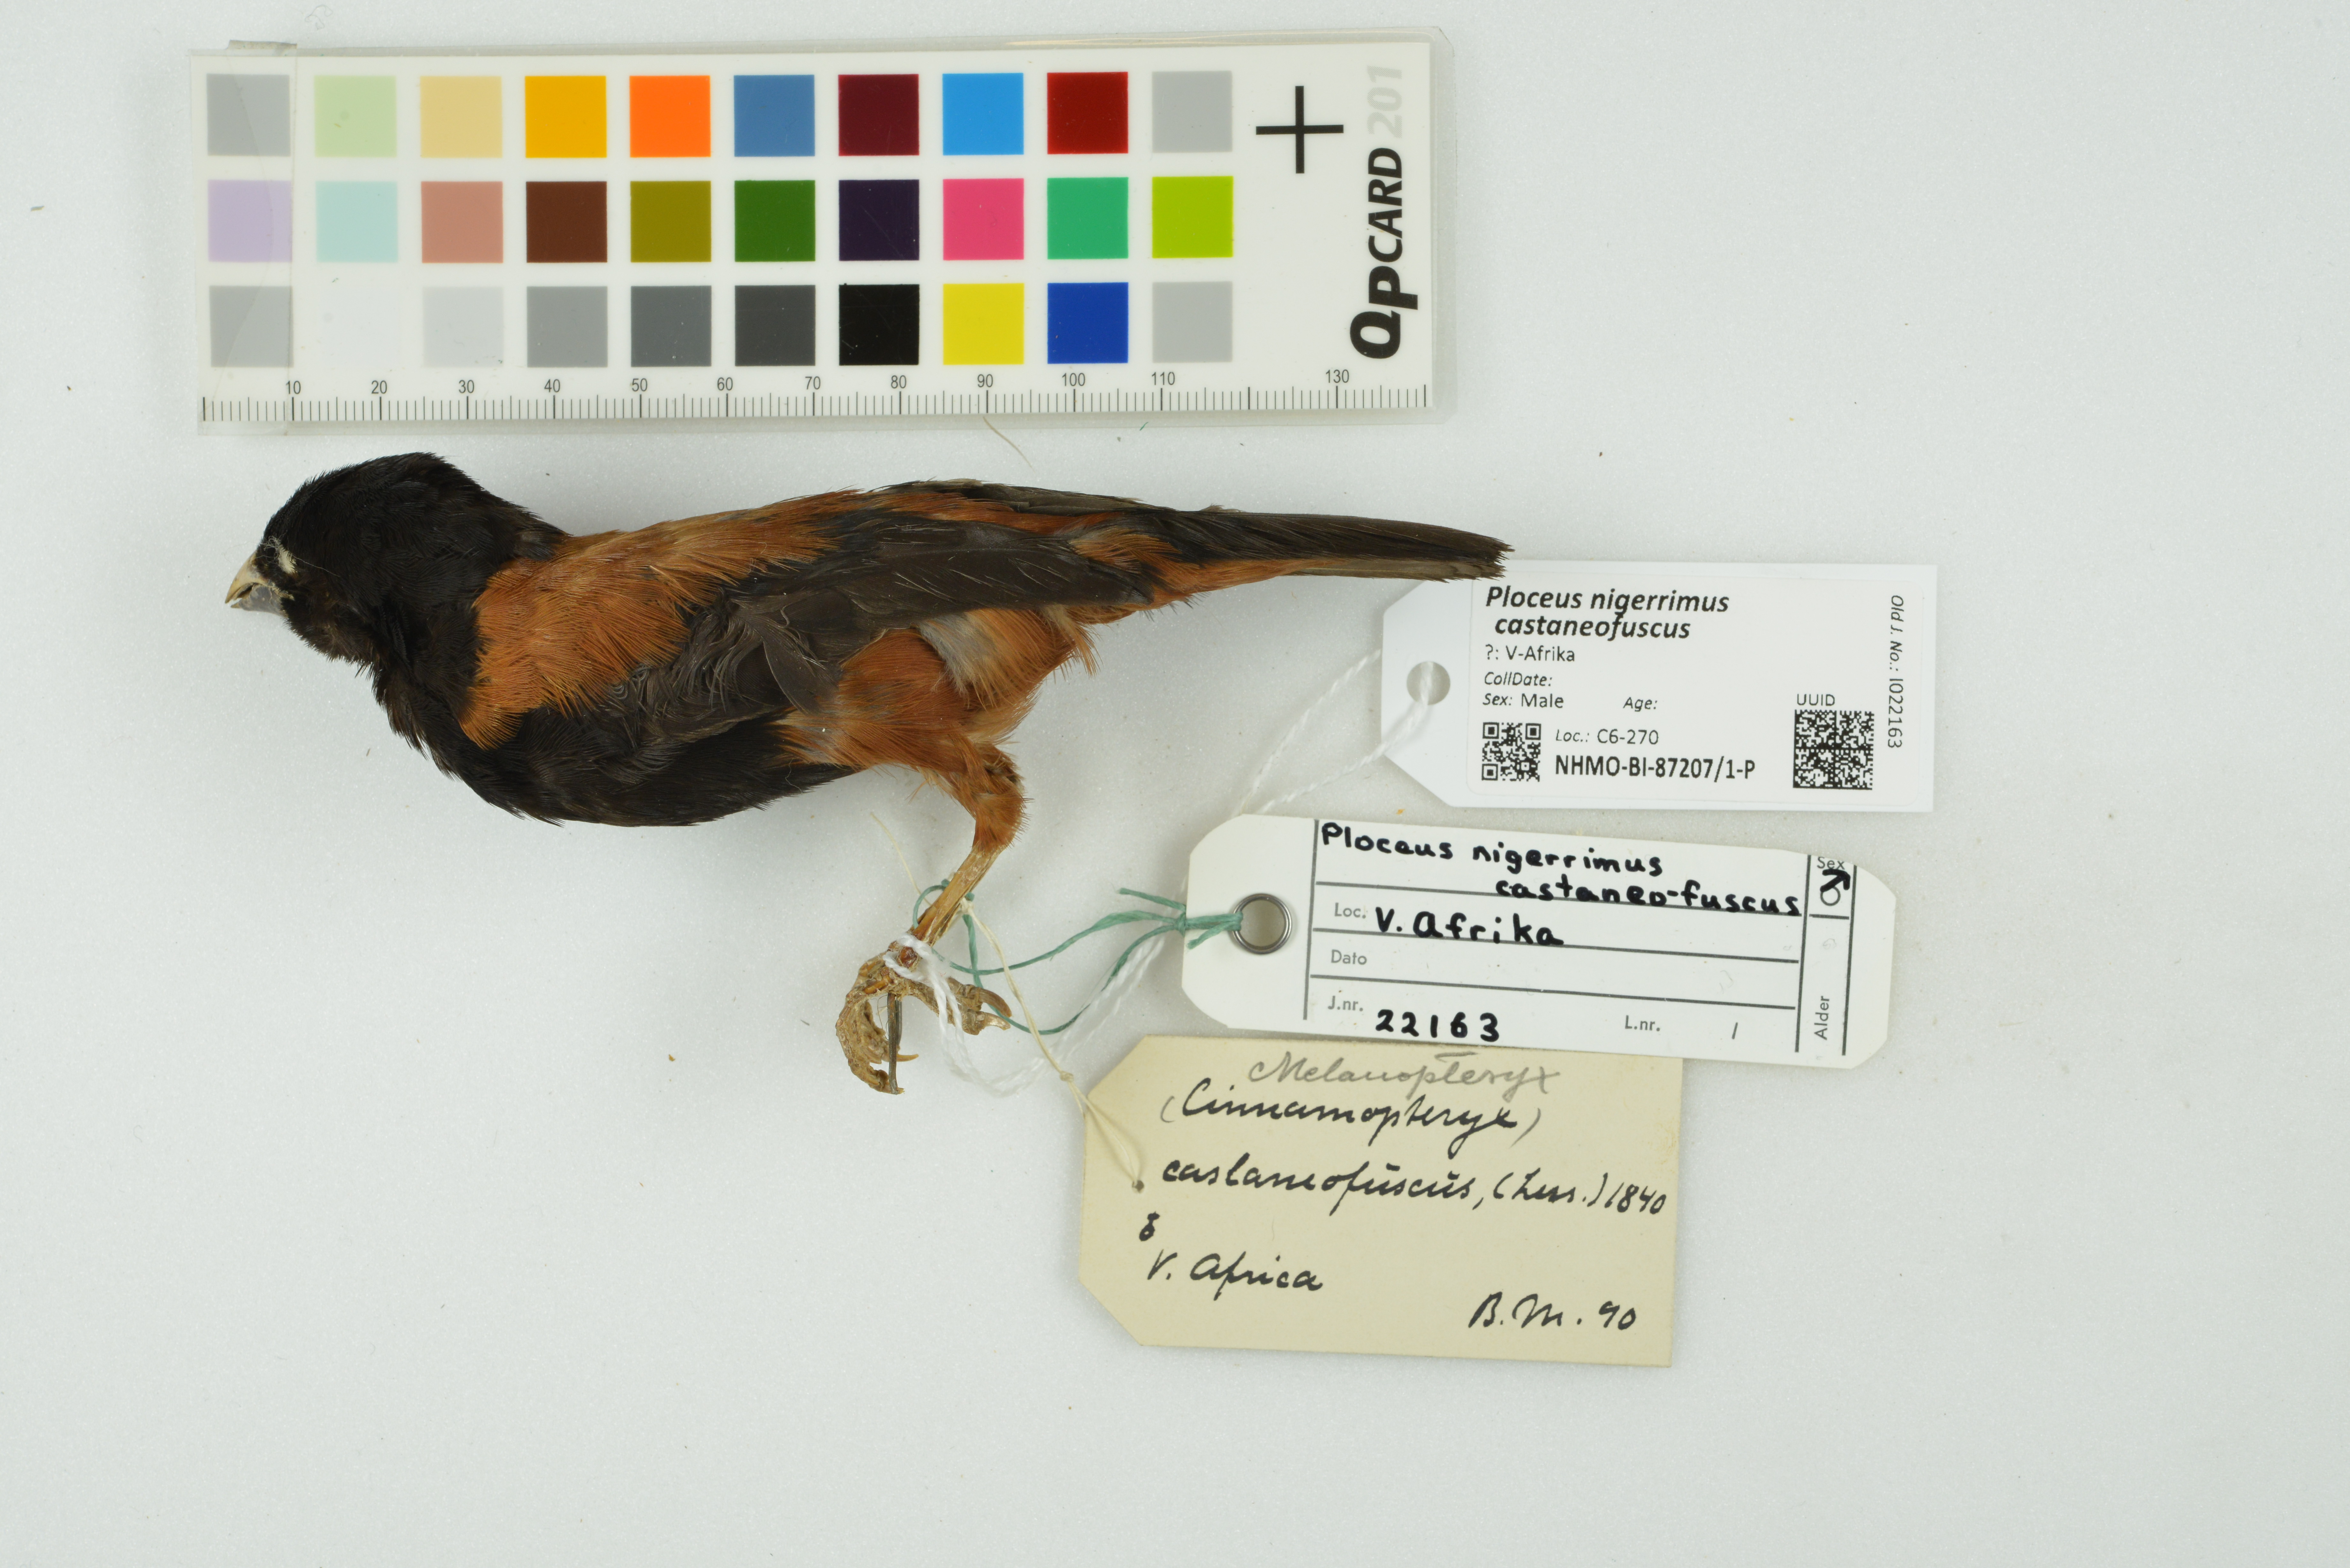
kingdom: Animalia
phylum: Chordata
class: Aves
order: Passeriformes
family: Ploceidae
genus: Ploceus
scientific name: Ploceus nigerrimus
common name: Vieillot's black weaver
